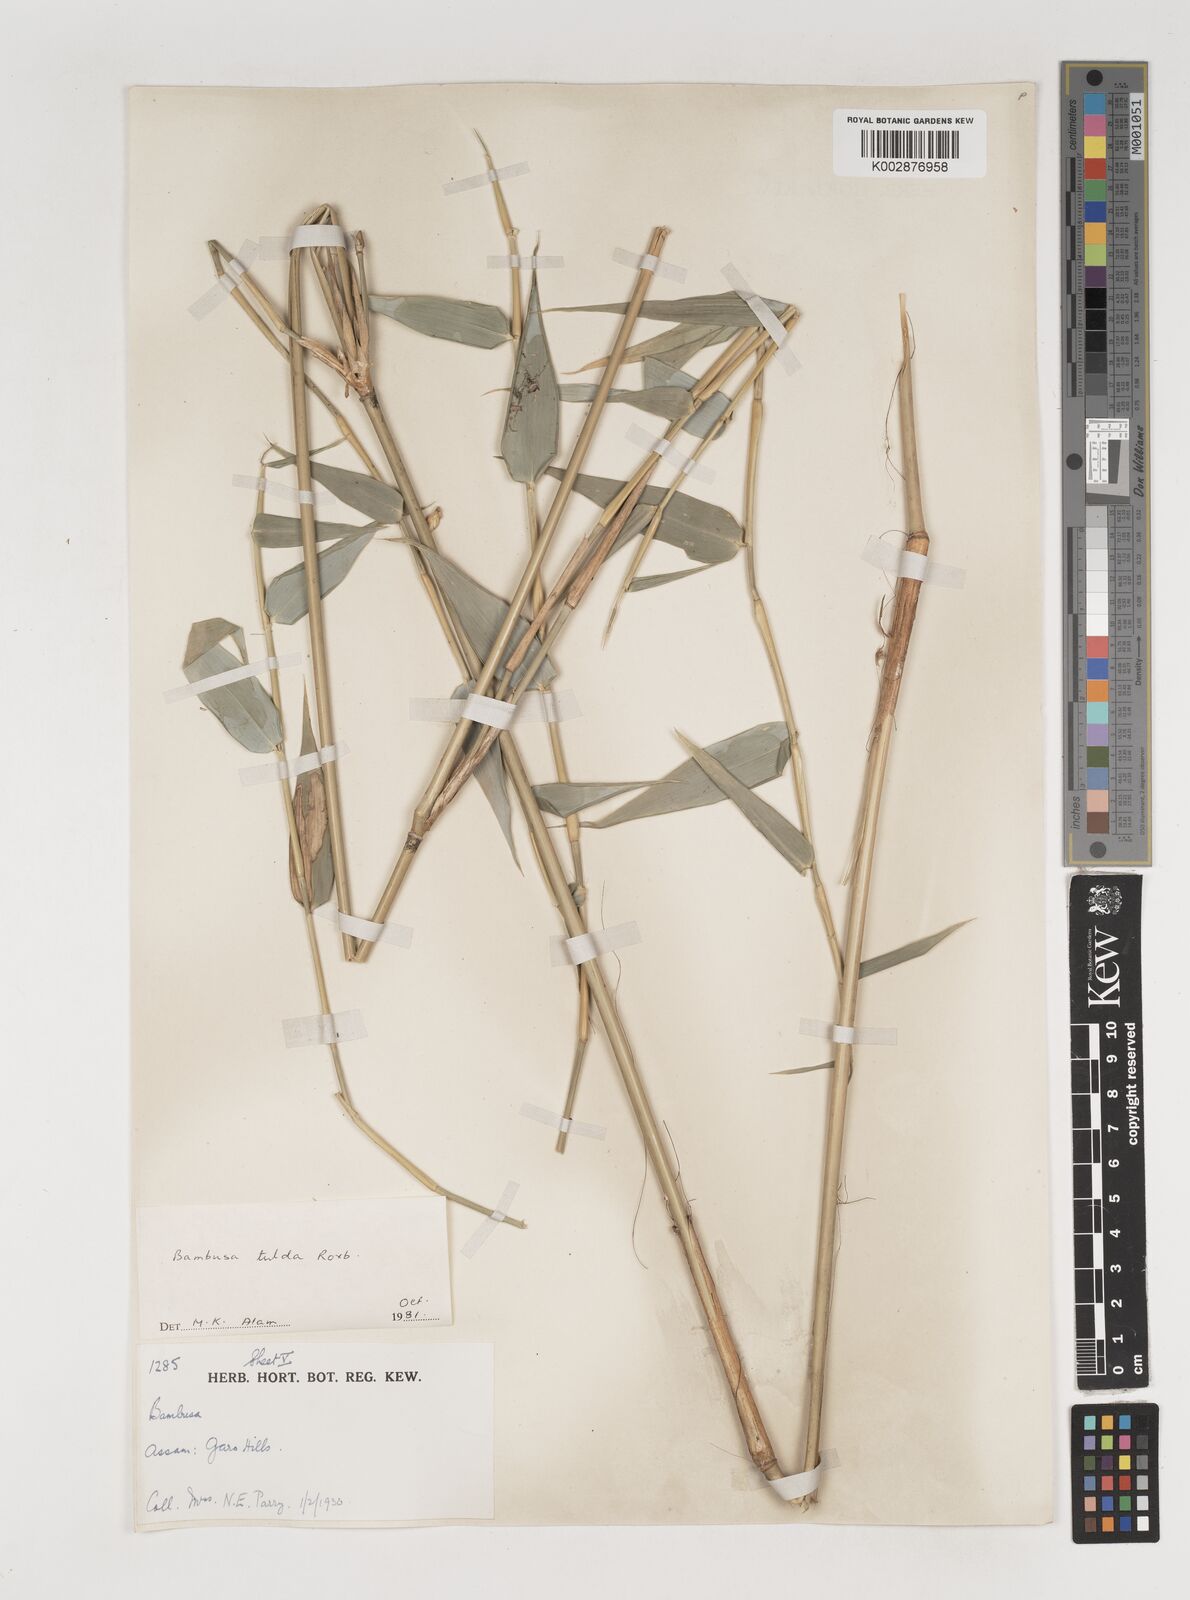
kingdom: Plantae
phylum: Tracheophyta
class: Liliopsida
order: Poales
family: Poaceae
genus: Bambusa
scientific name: Bambusa tulda
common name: Bengal bamboo
